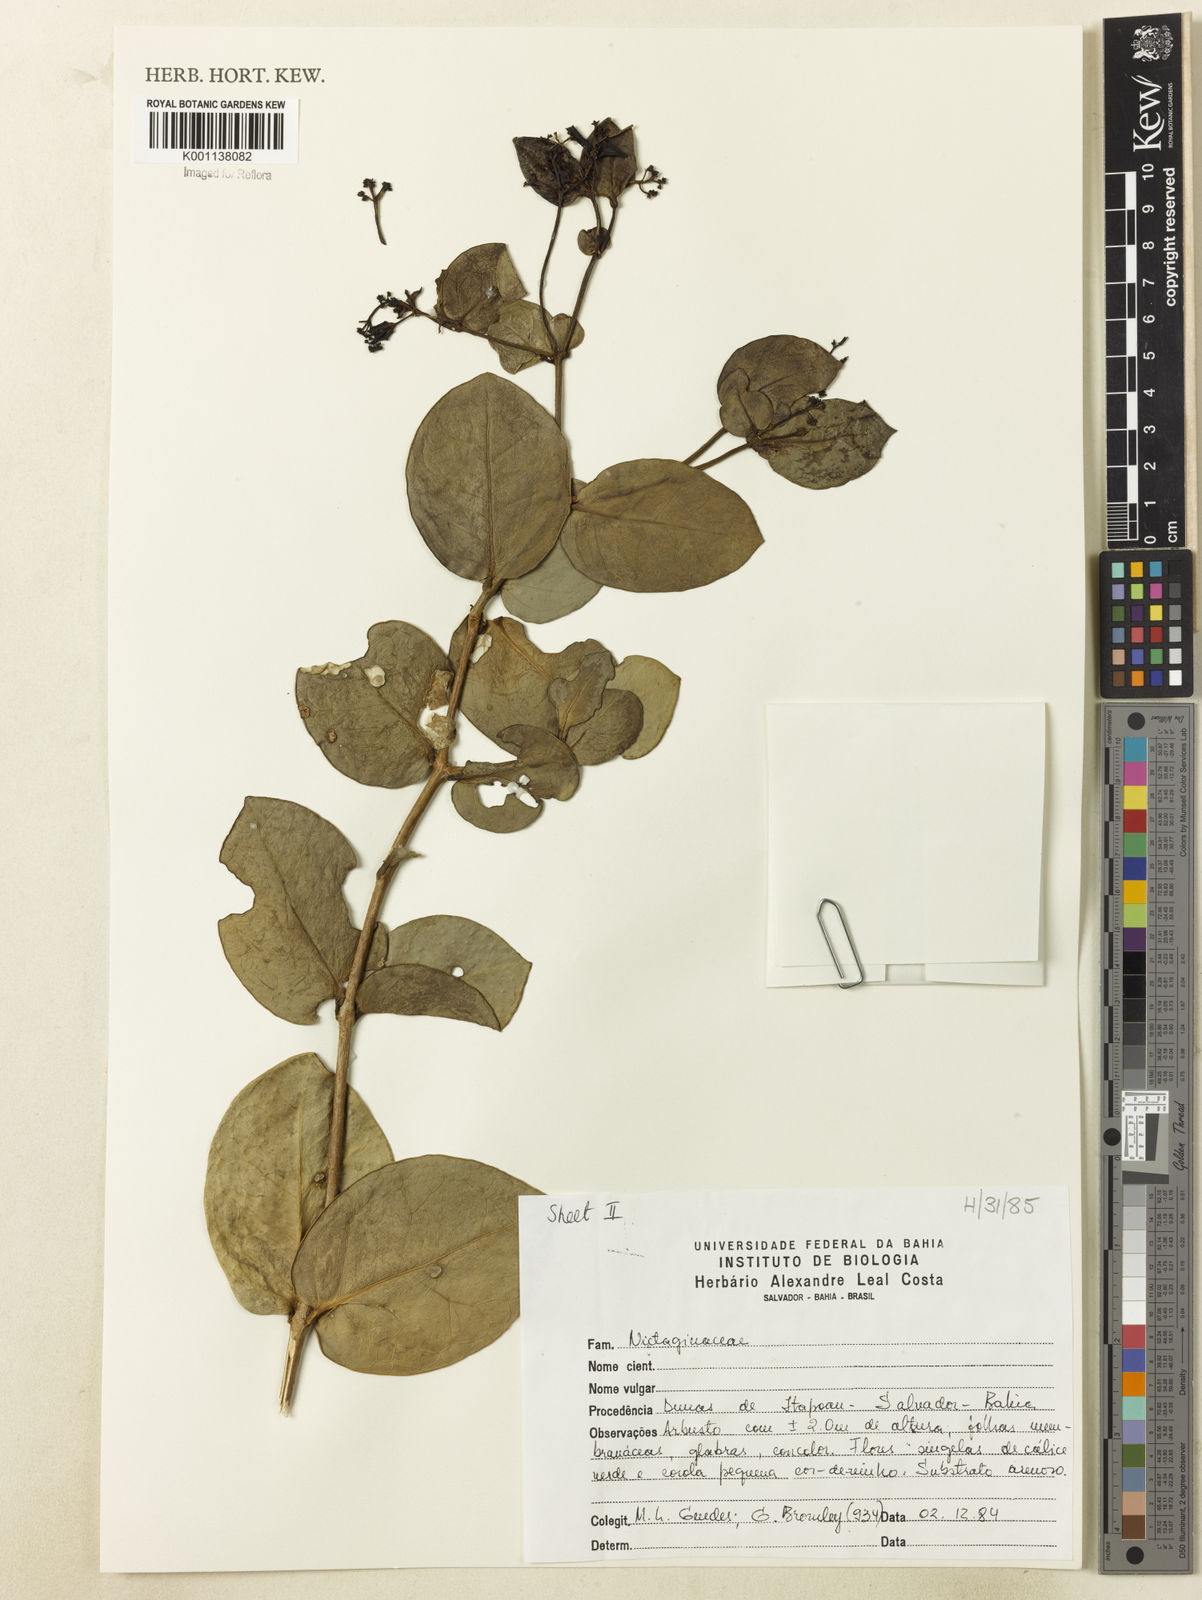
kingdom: Plantae
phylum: Tracheophyta
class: Magnoliopsida
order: Caryophyllales
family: Nyctaginaceae
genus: Neea
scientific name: Neea
